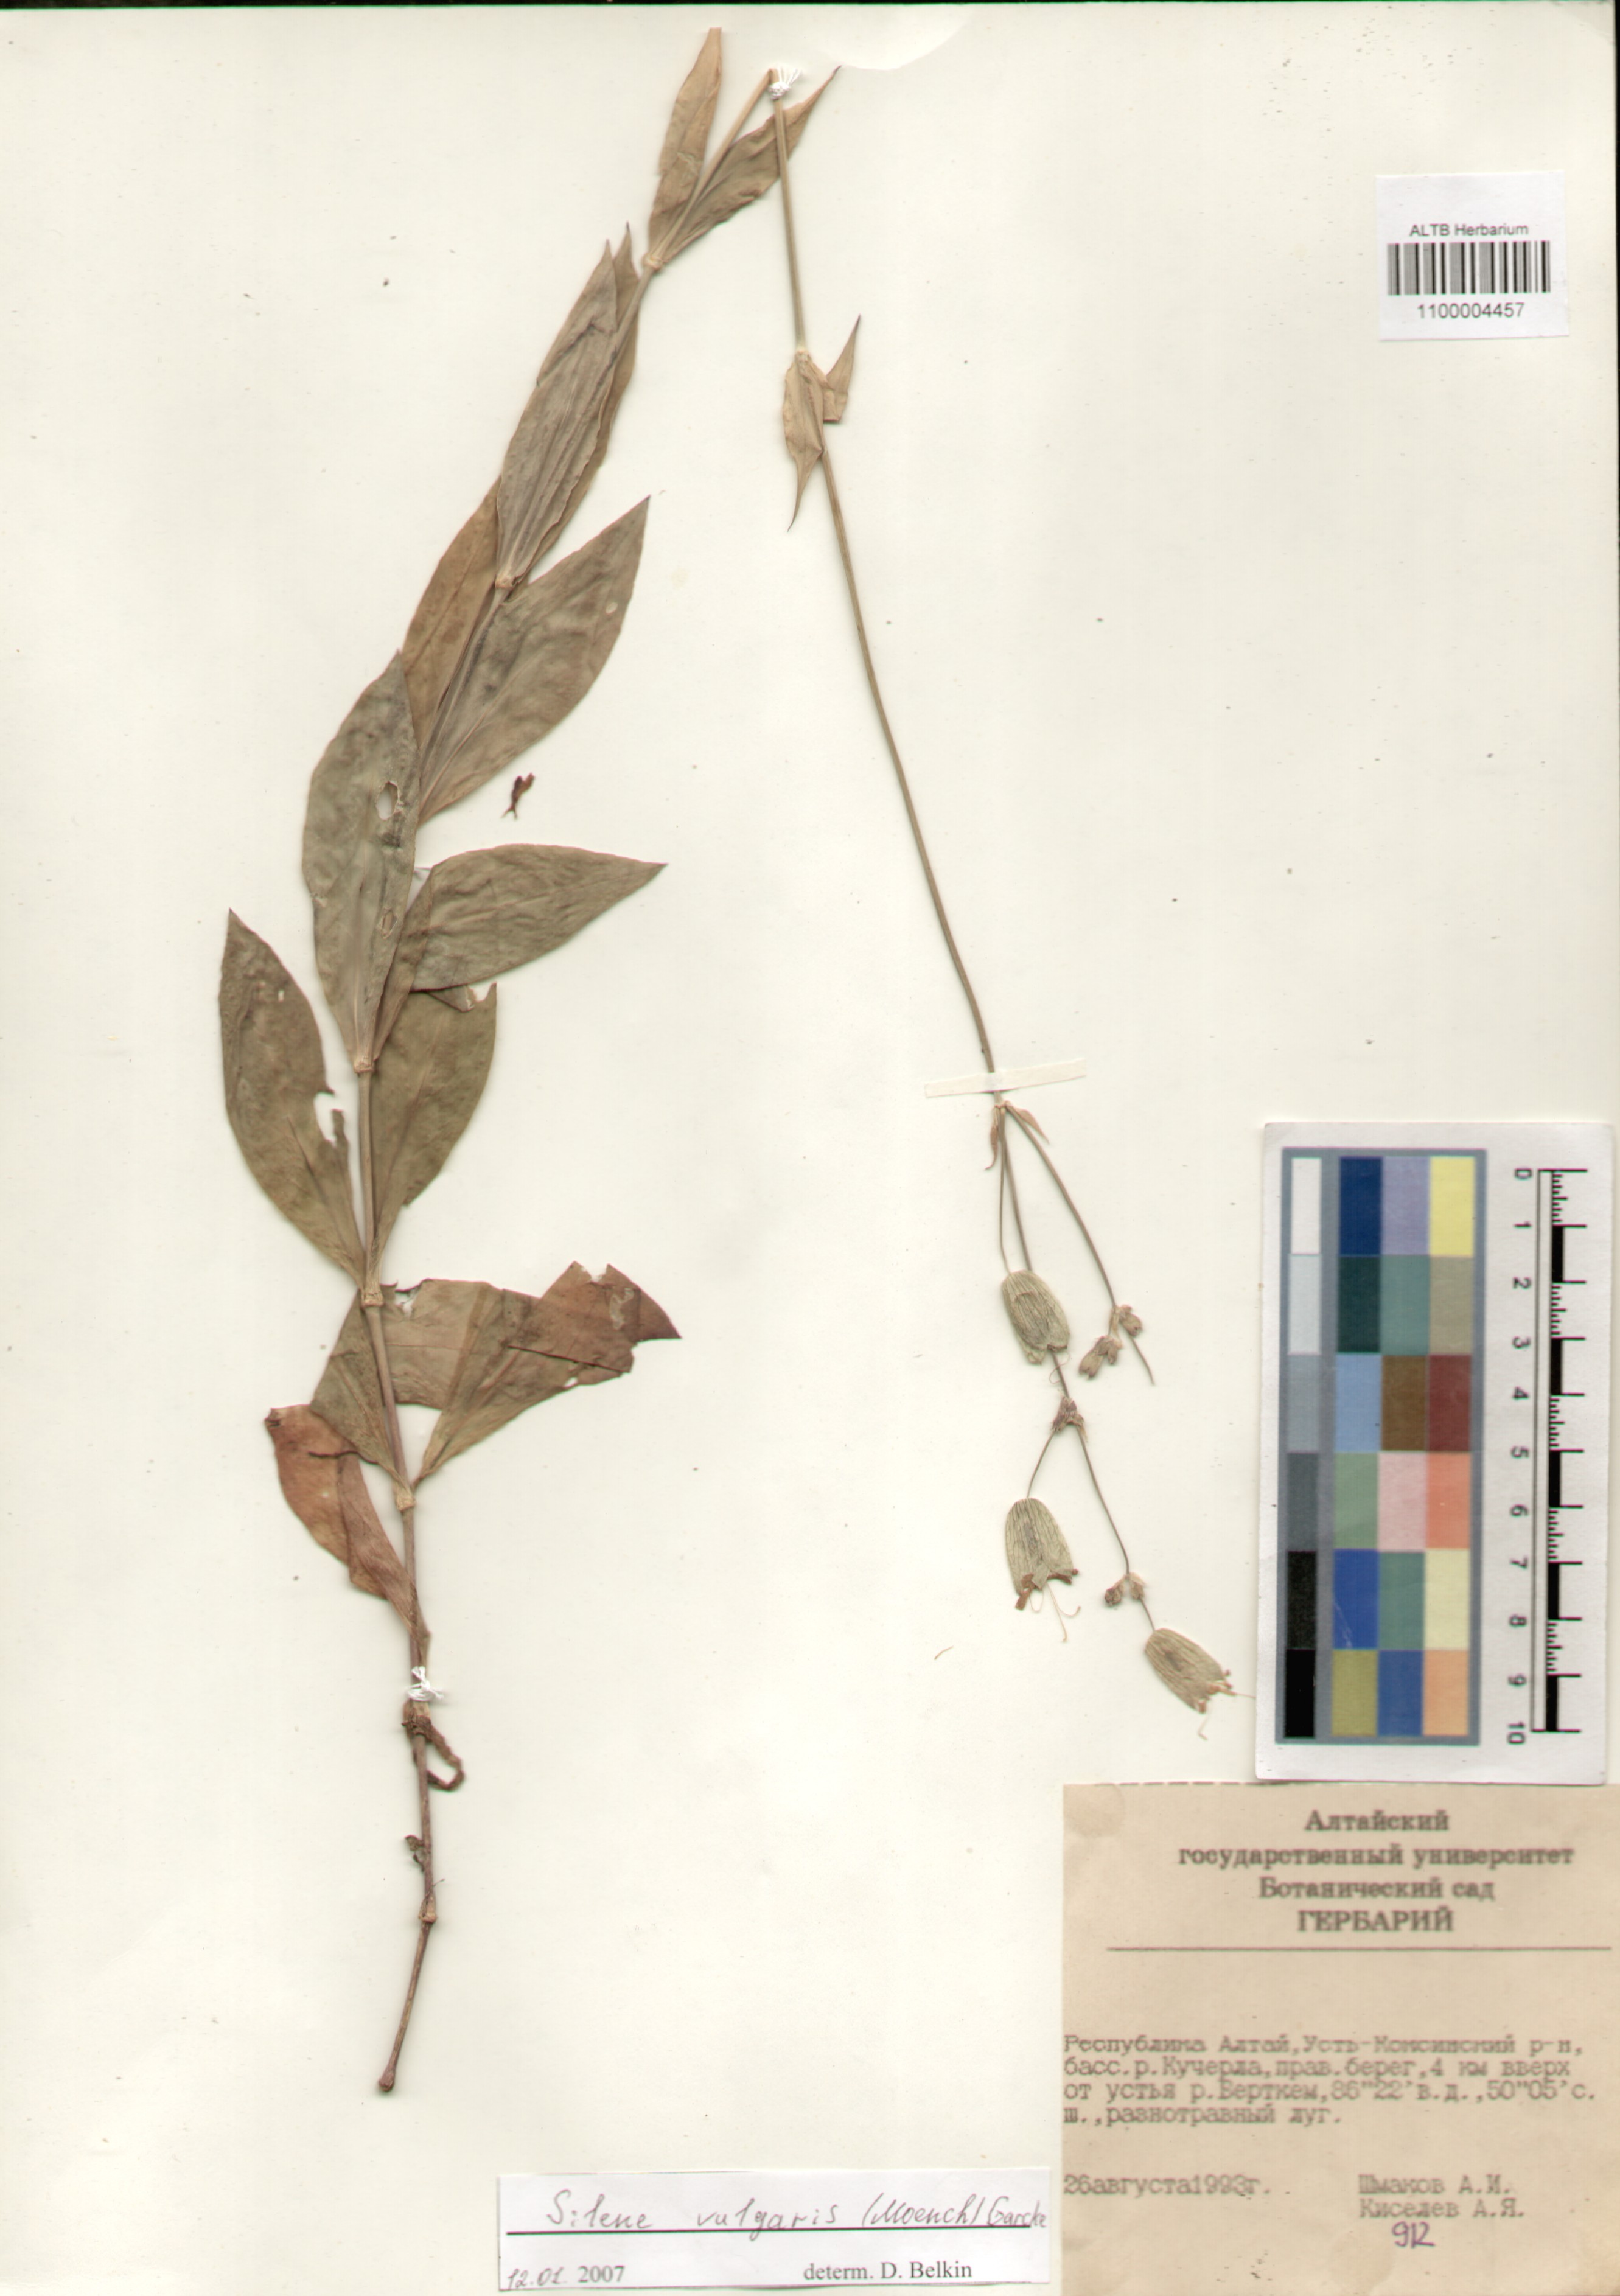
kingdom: Plantae
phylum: Tracheophyta
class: Magnoliopsida
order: Caryophyllales
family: Caryophyllaceae
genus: Silene
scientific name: Silene vulgaris
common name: Bladder campion
